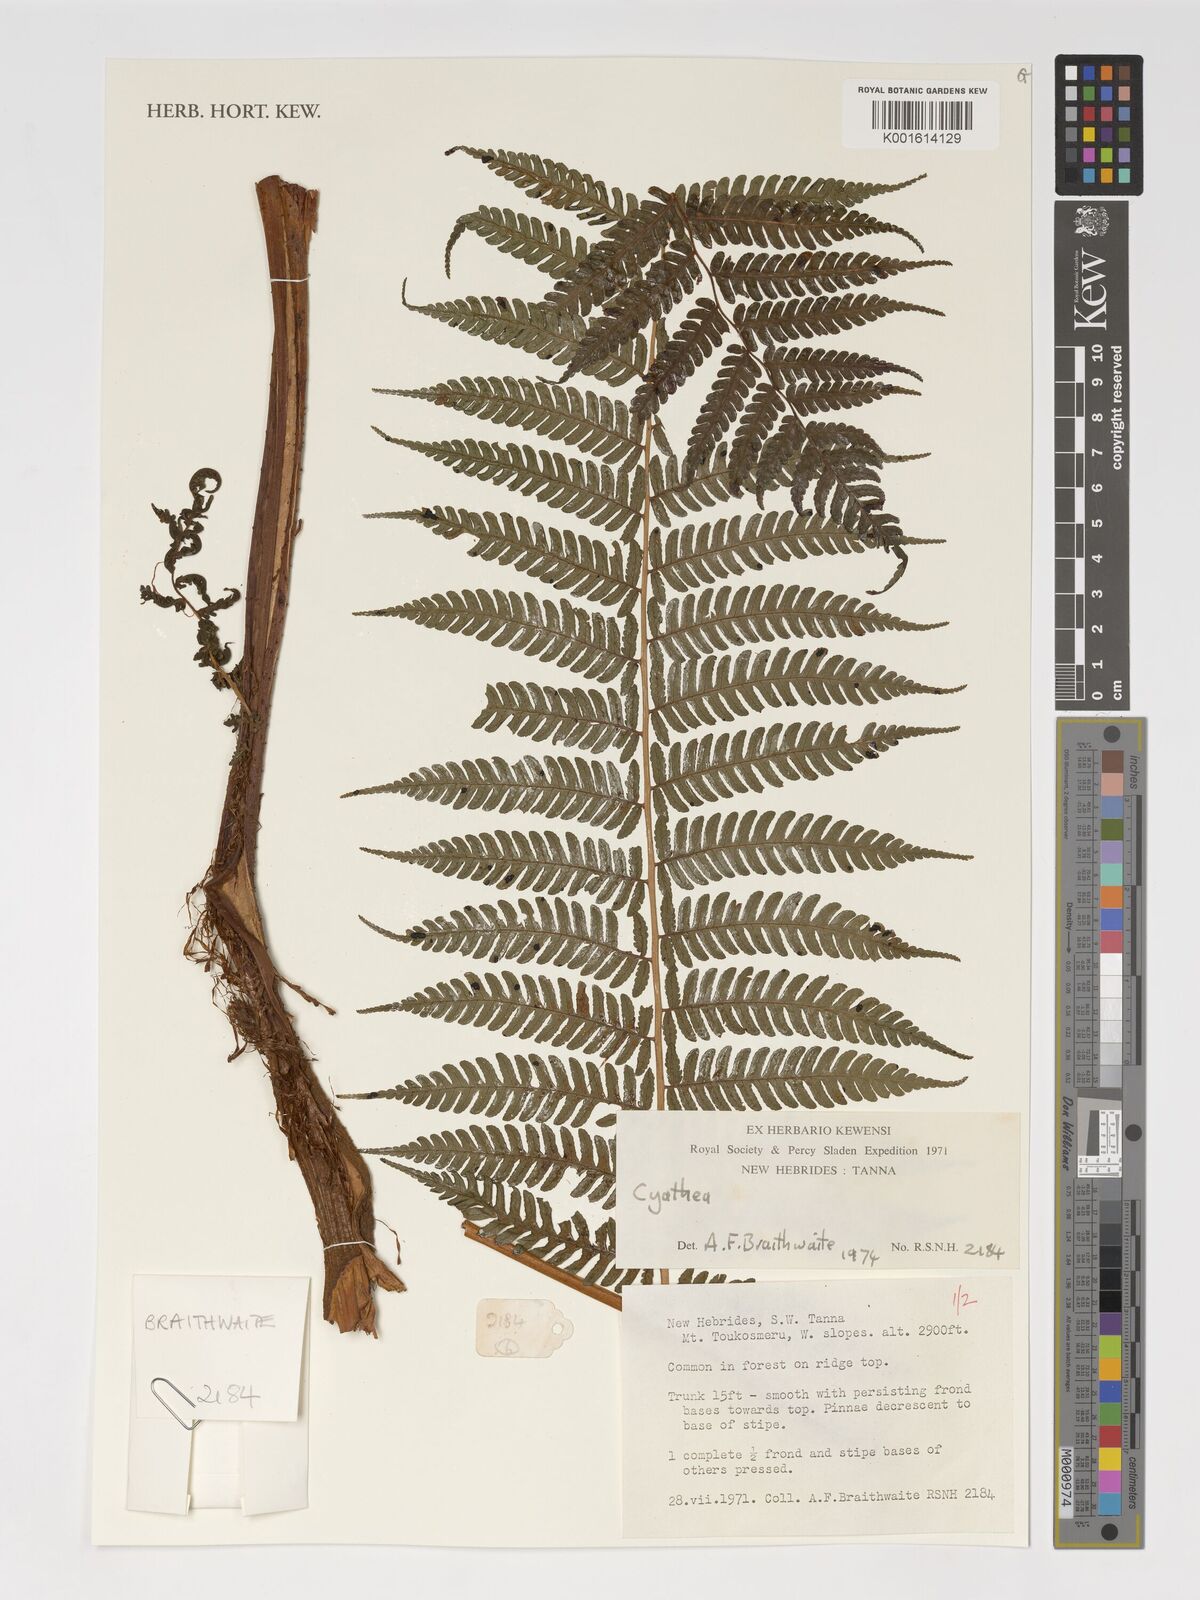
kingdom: Plantae
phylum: Tracheophyta
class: Polypodiopsida
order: Cyatheales
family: Cyatheaceae
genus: Cyathea
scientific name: Cyathea
